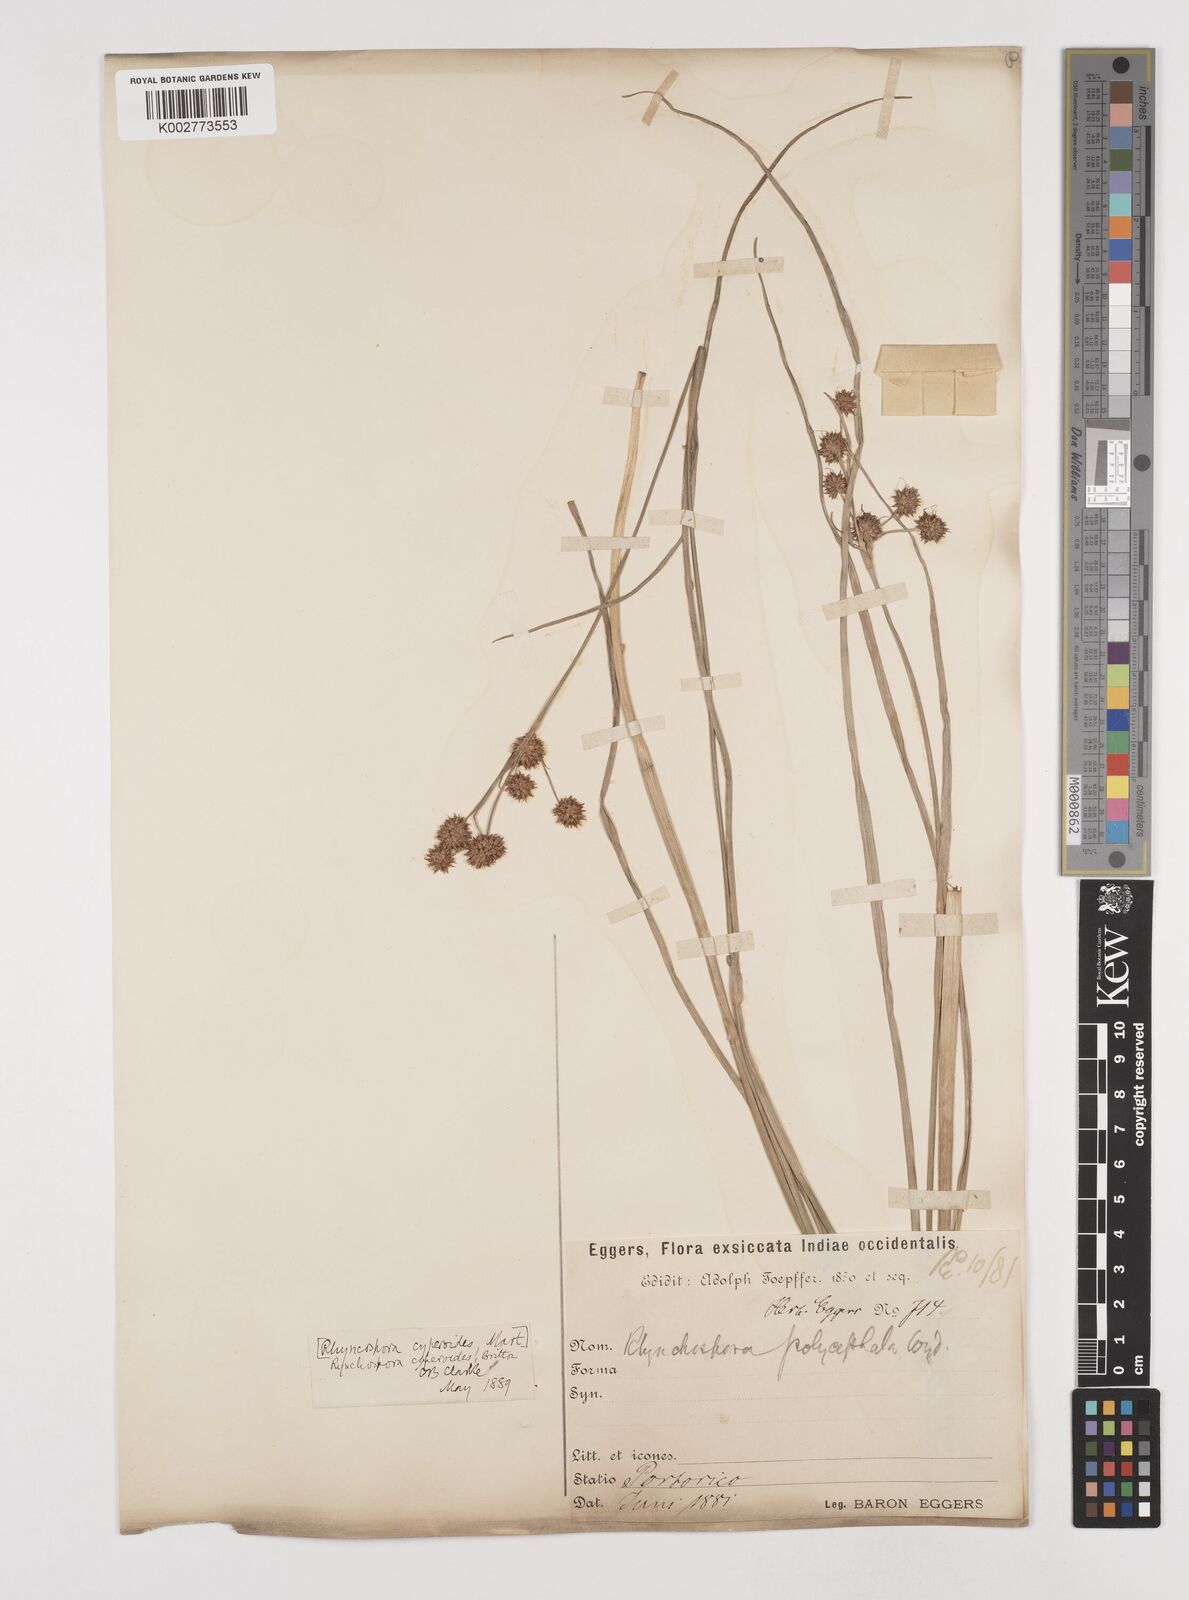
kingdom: Plantae
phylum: Tracheophyta
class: Liliopsida
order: Poales
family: Cyperaceae
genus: Rhynchospora
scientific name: Rhynchospora holoschoenoides
